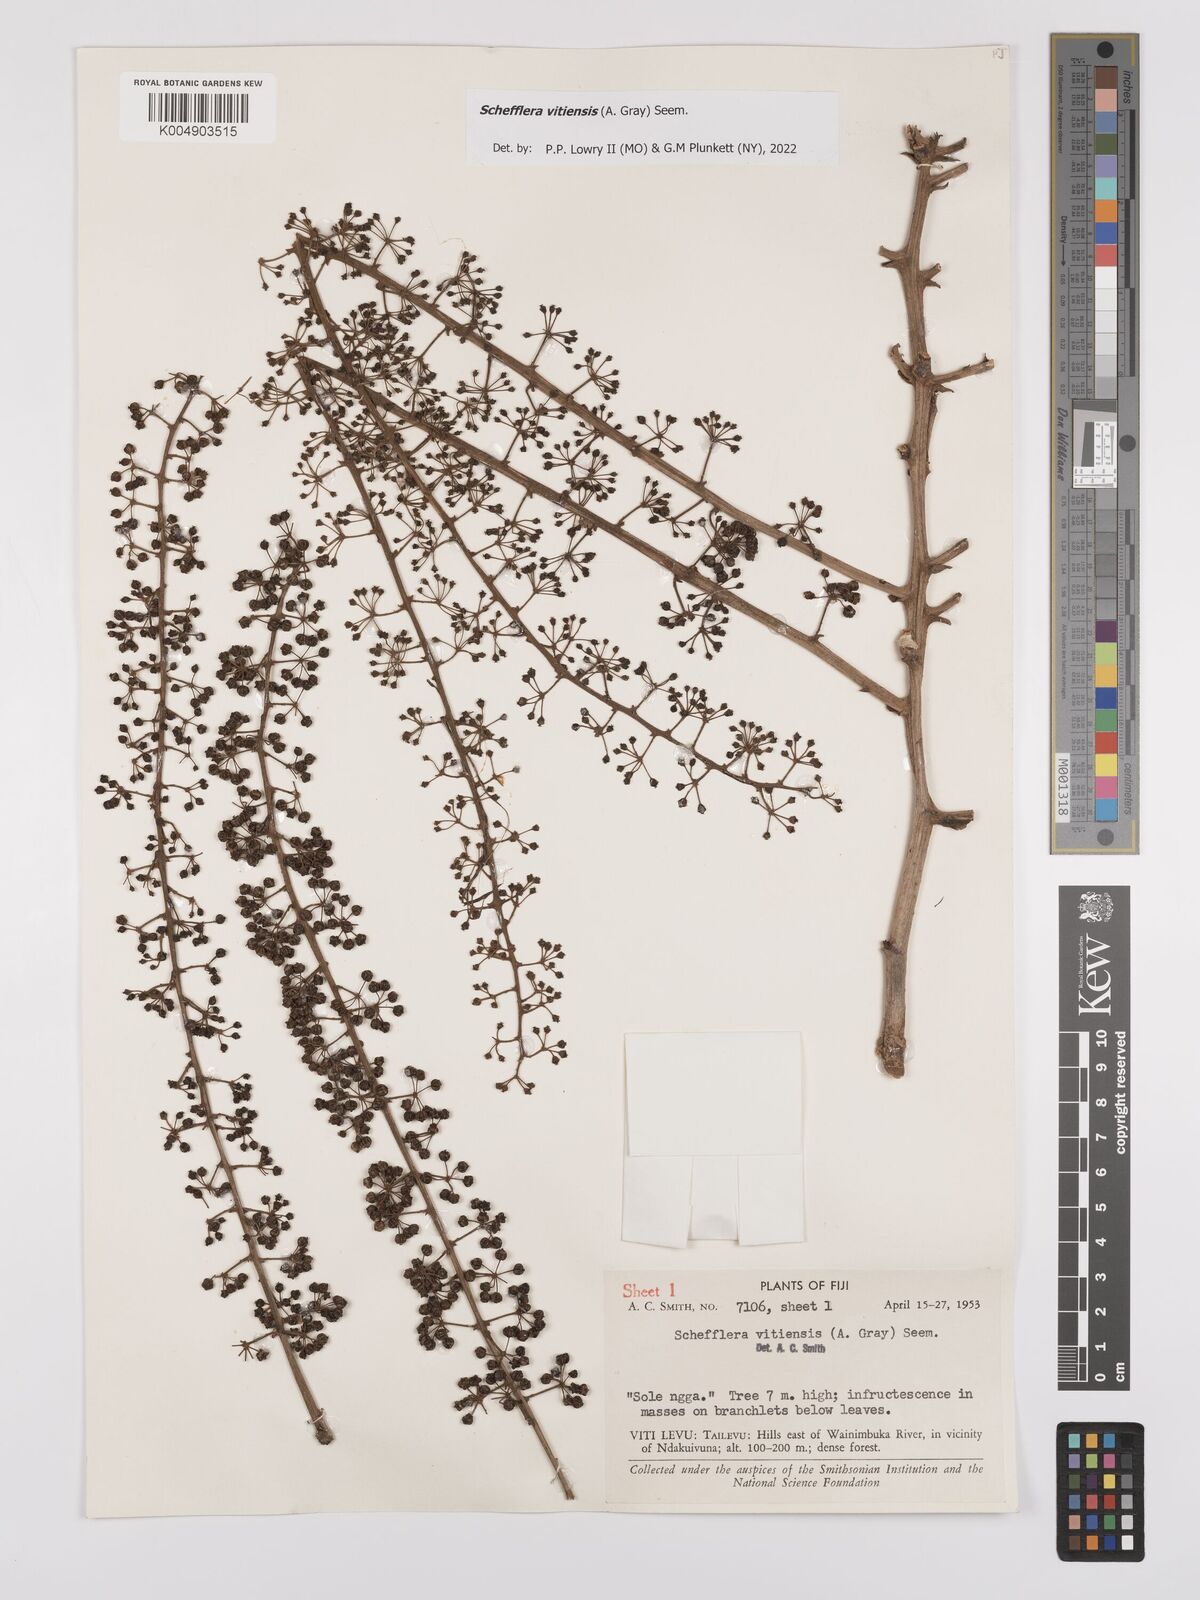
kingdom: Plantae
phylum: Tracheophyta
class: Magnoliopsida
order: Apiales
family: Araliaceae
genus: Schefflera
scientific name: Schefflera vitiensis
